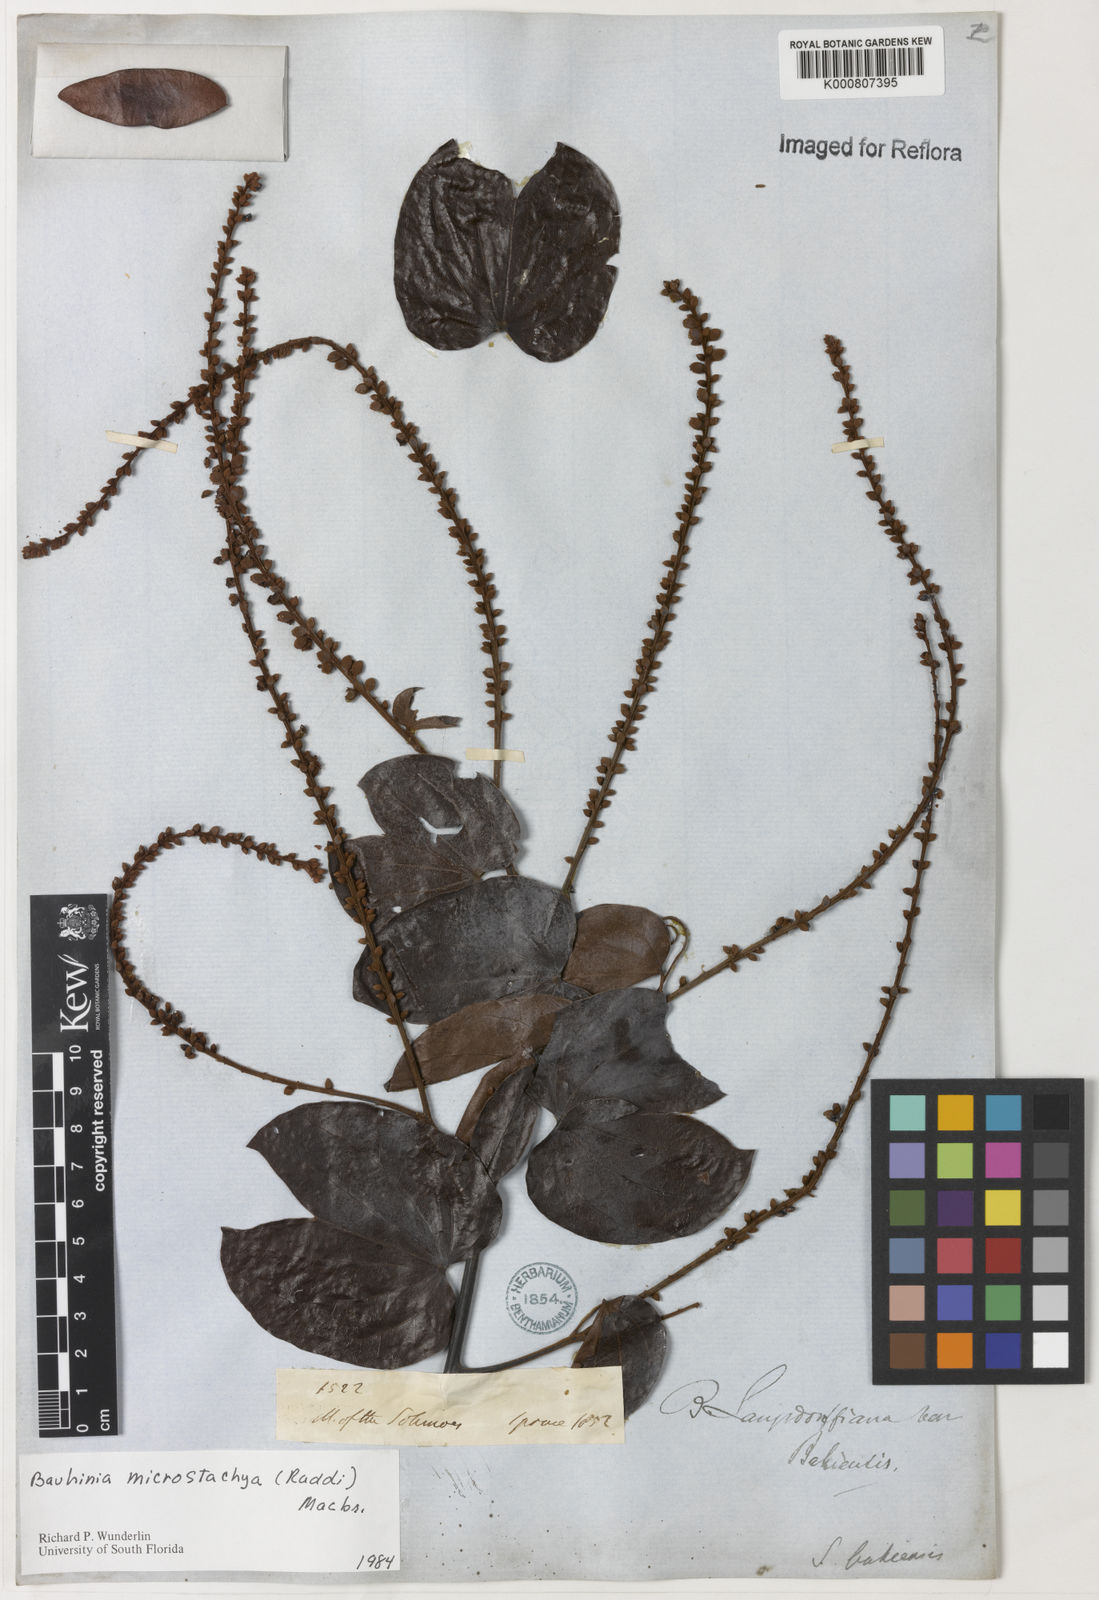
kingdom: Plantae
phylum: Tracheophyta
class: Magnoliopsida
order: Fabales
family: Fabaceae
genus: Schnella
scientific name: Schnella microstachya
